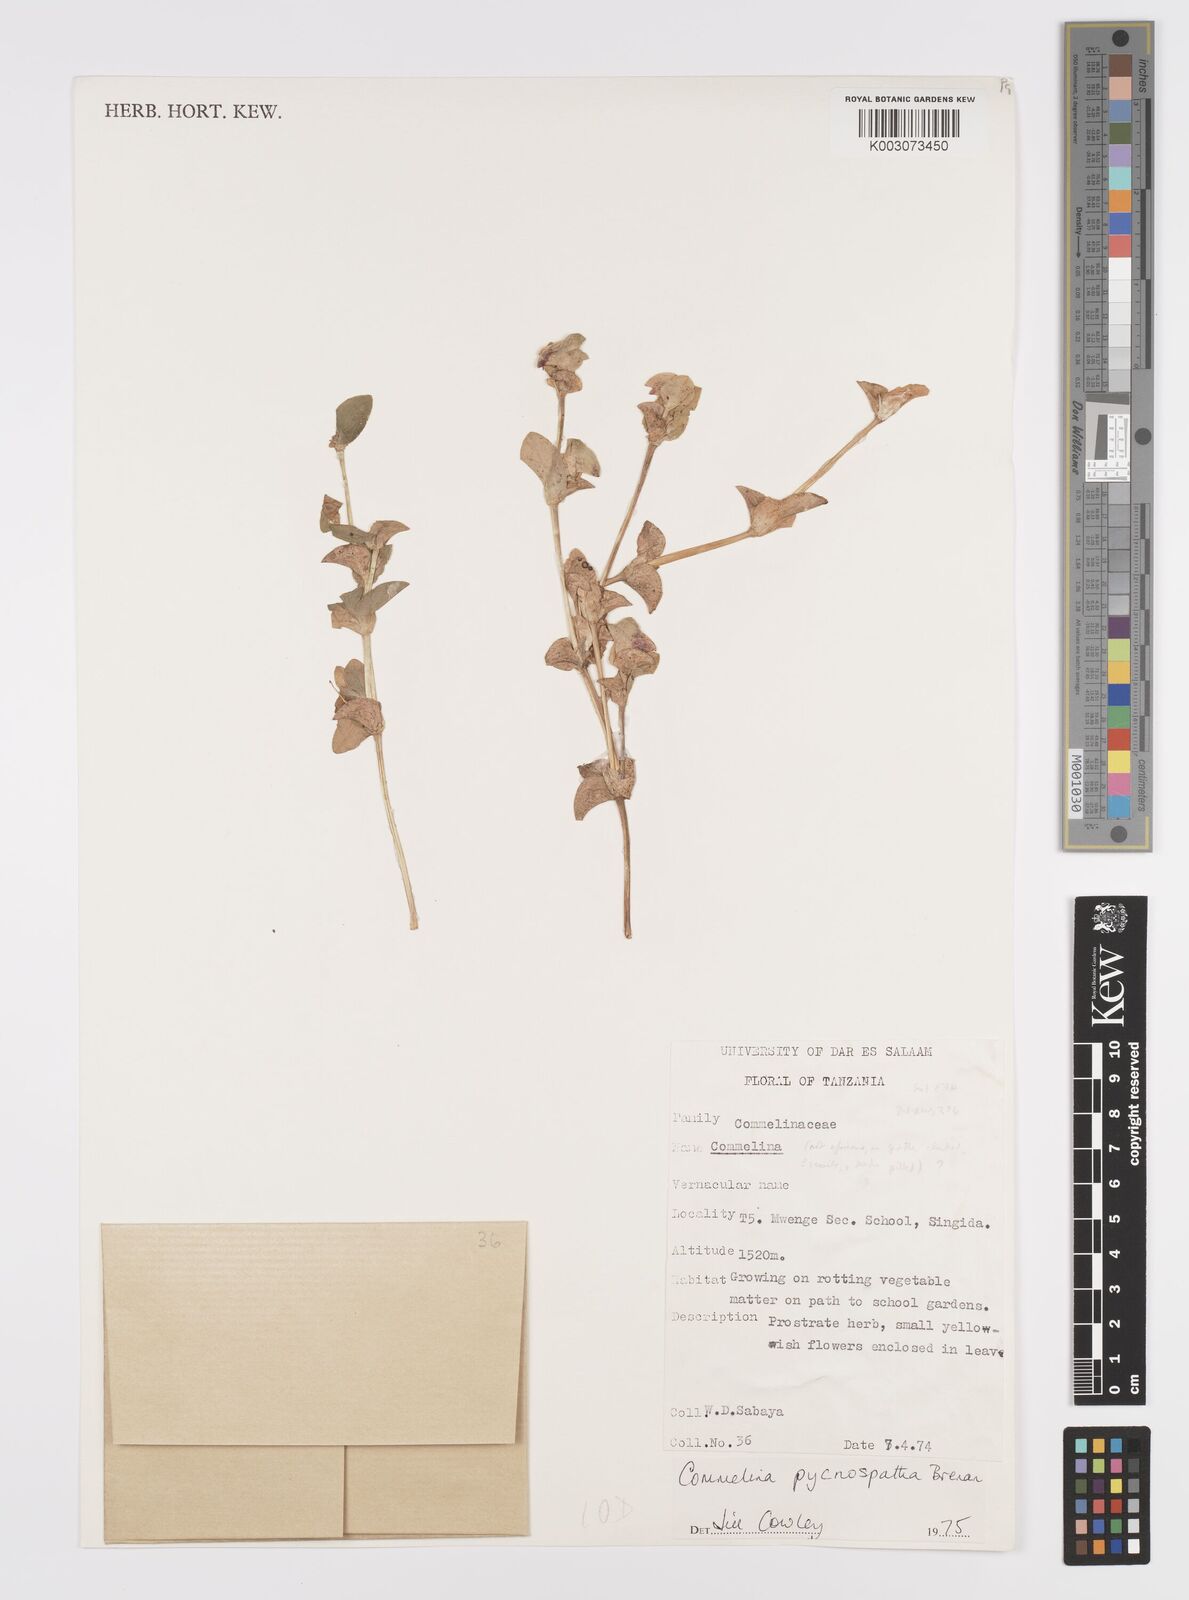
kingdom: Plantae
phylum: Tracheophyta
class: Liliopsida
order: Commelinales
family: Commelinaceae
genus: Commelina
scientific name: Commelina pycnospatha
